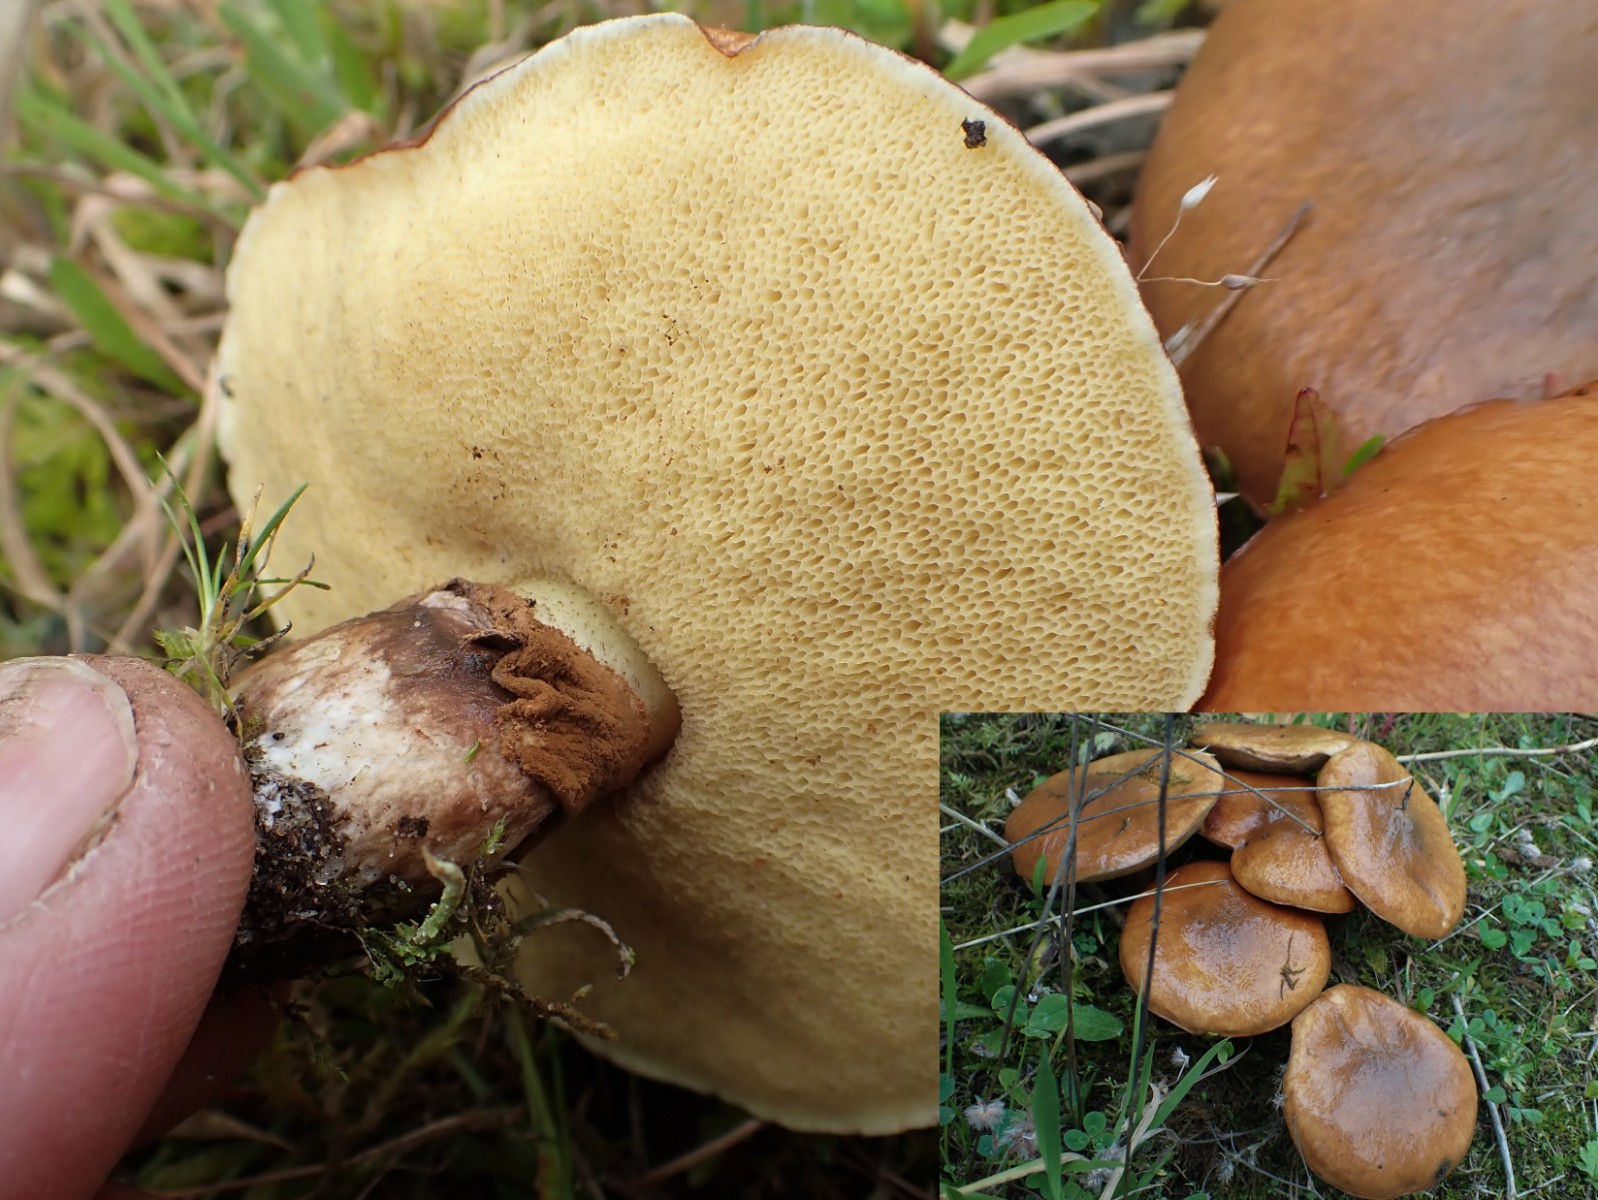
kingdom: Fungi
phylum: Basidiomycota
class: Agaricomycetes
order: Boletales
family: Suillaceae
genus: Suillus
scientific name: Suillus luteus
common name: brungul slimrørhat
